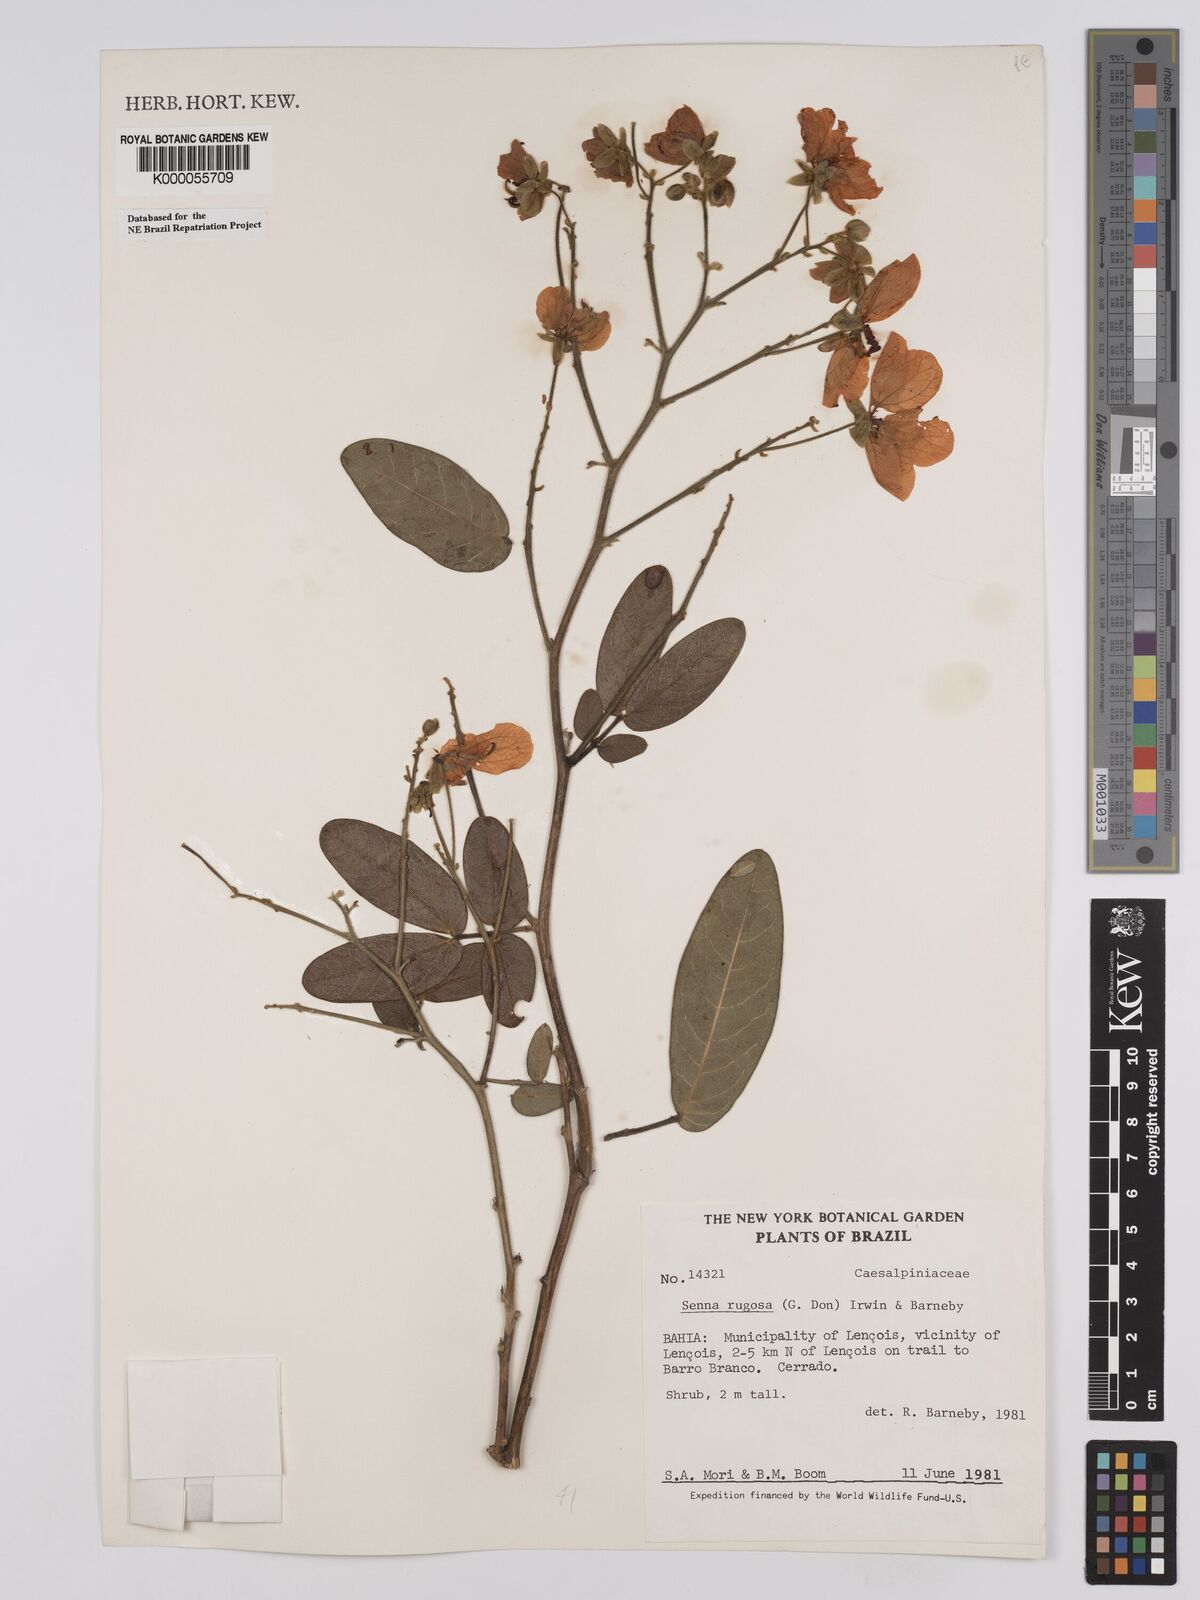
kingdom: Plantae
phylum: Tracheophyta
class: Magnoliopsida
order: Fabales
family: Fabaceae
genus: Senna
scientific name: Senna rugosa
